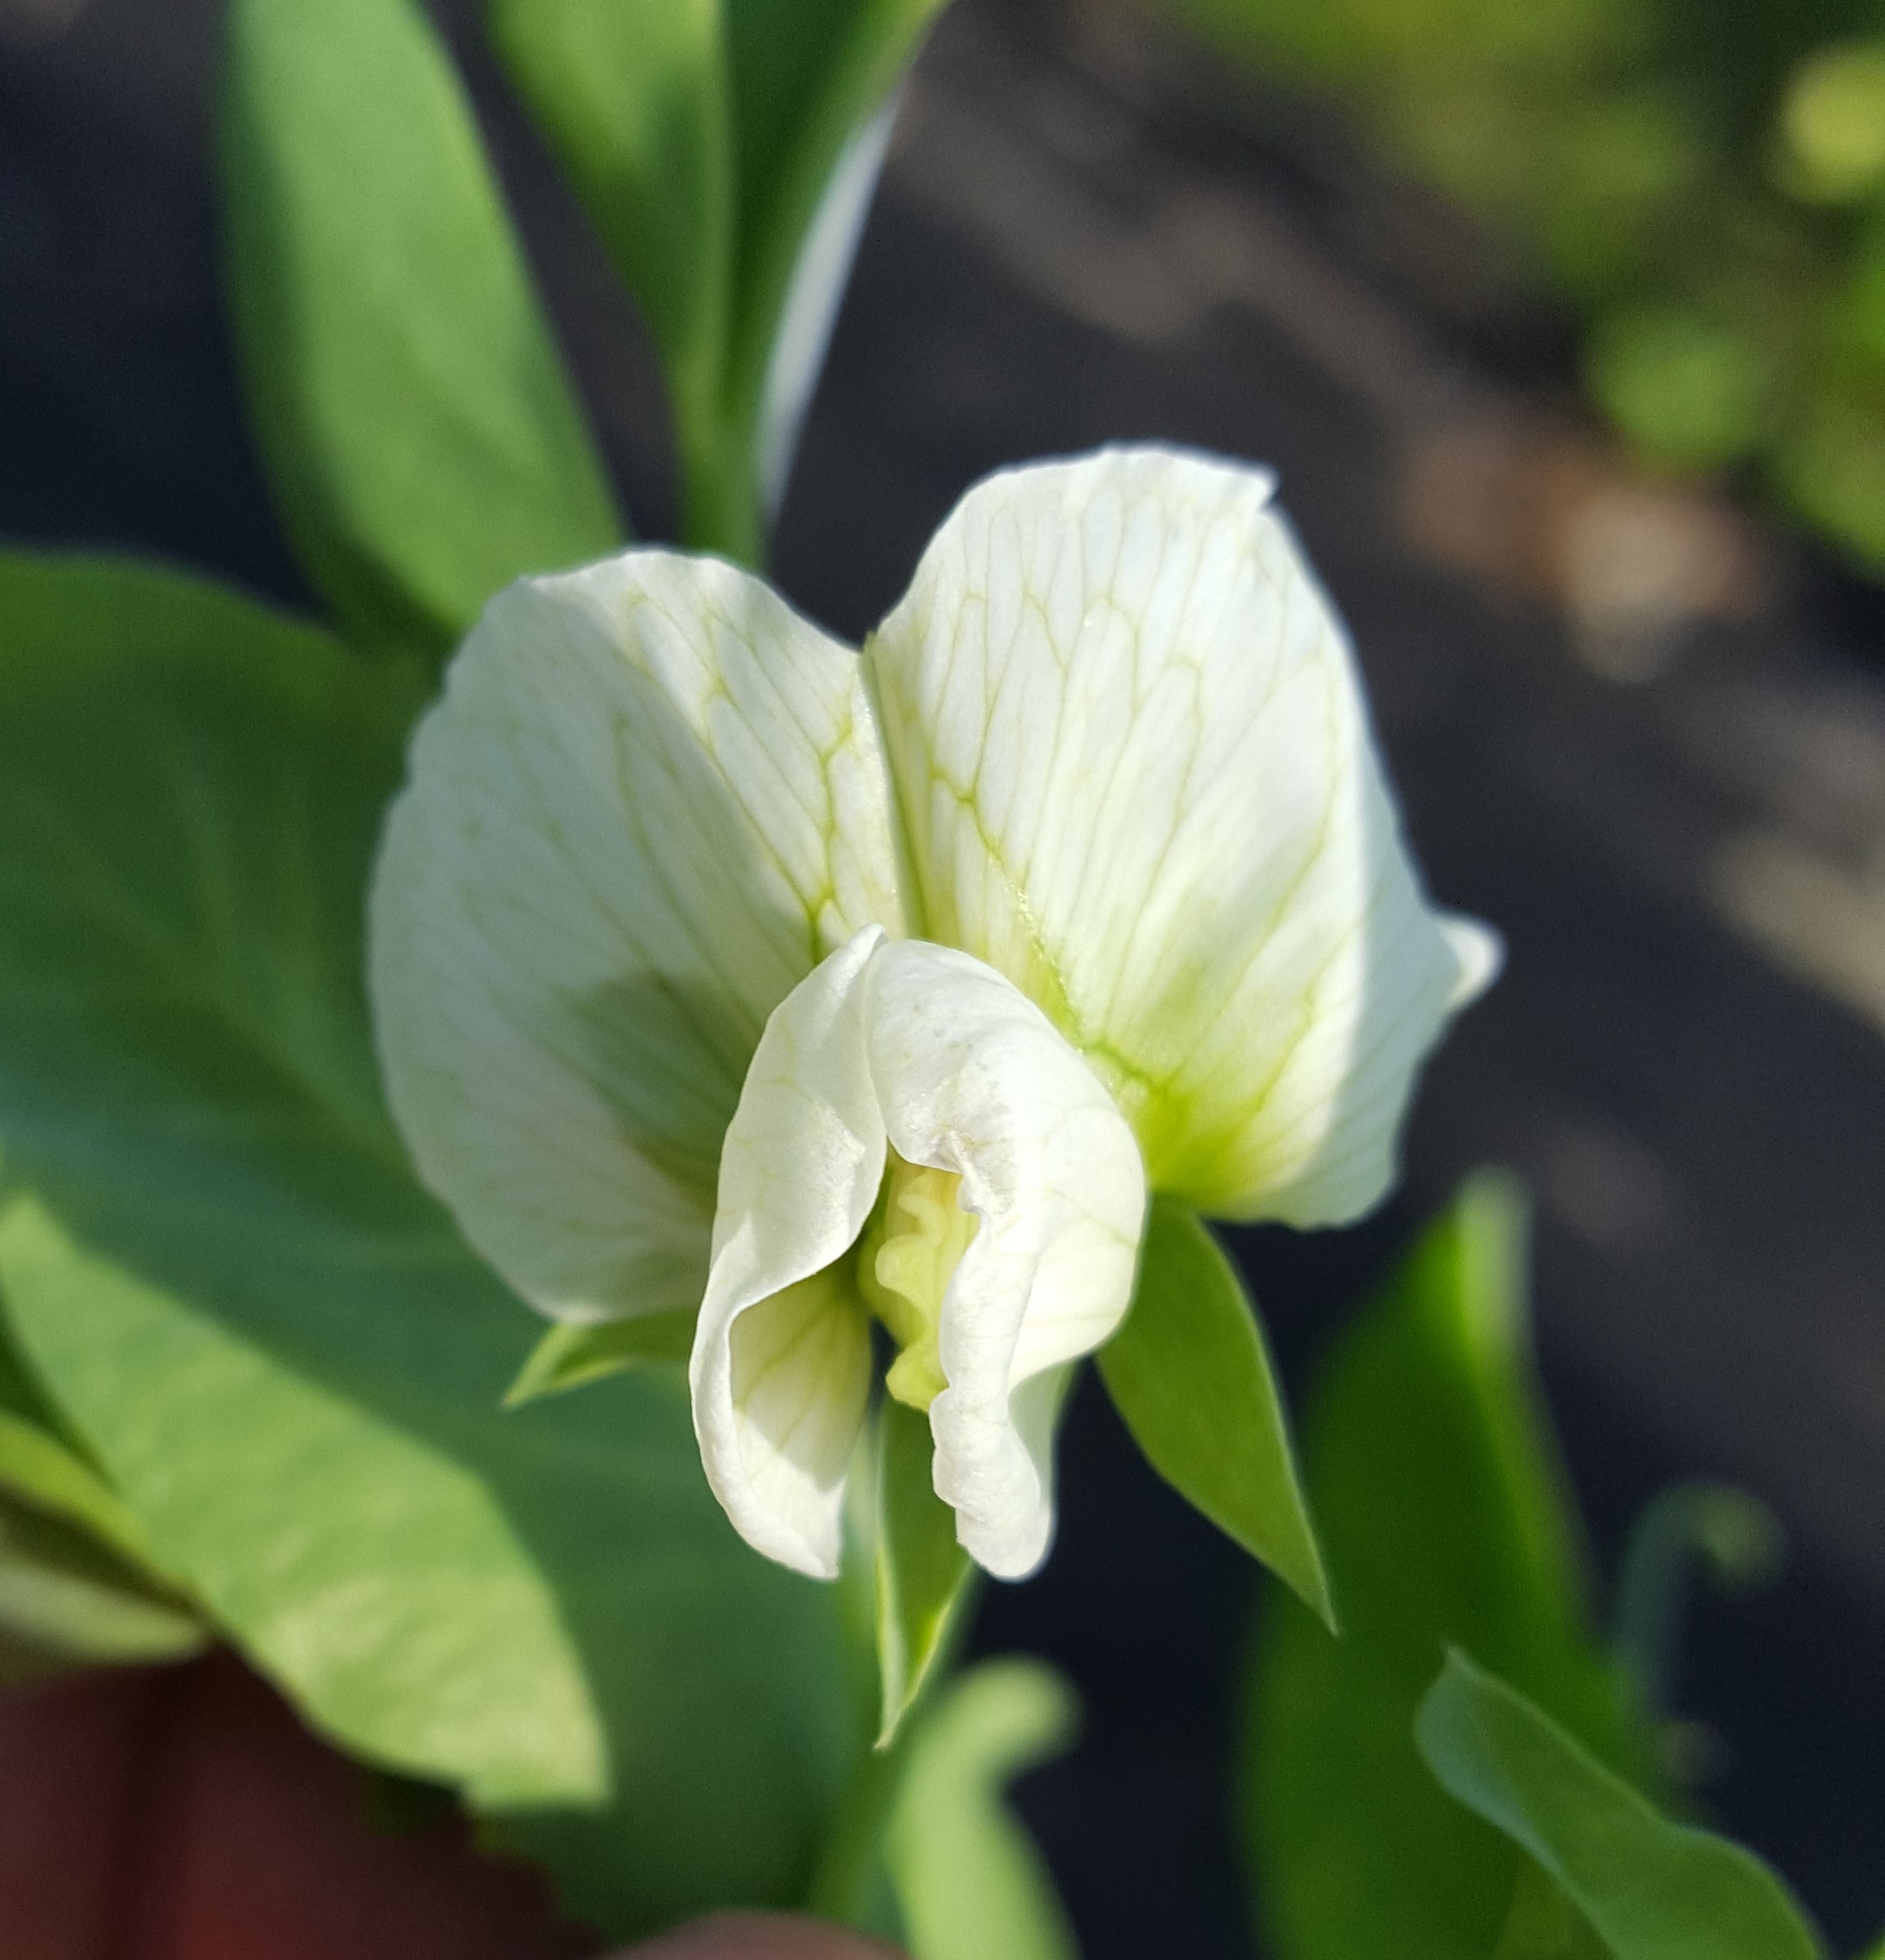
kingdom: Plantae
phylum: Tracheophyta
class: Magnoliopsida
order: Fabales
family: Fabaceae
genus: Lathyrus
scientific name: Lathyrus oleraceus
